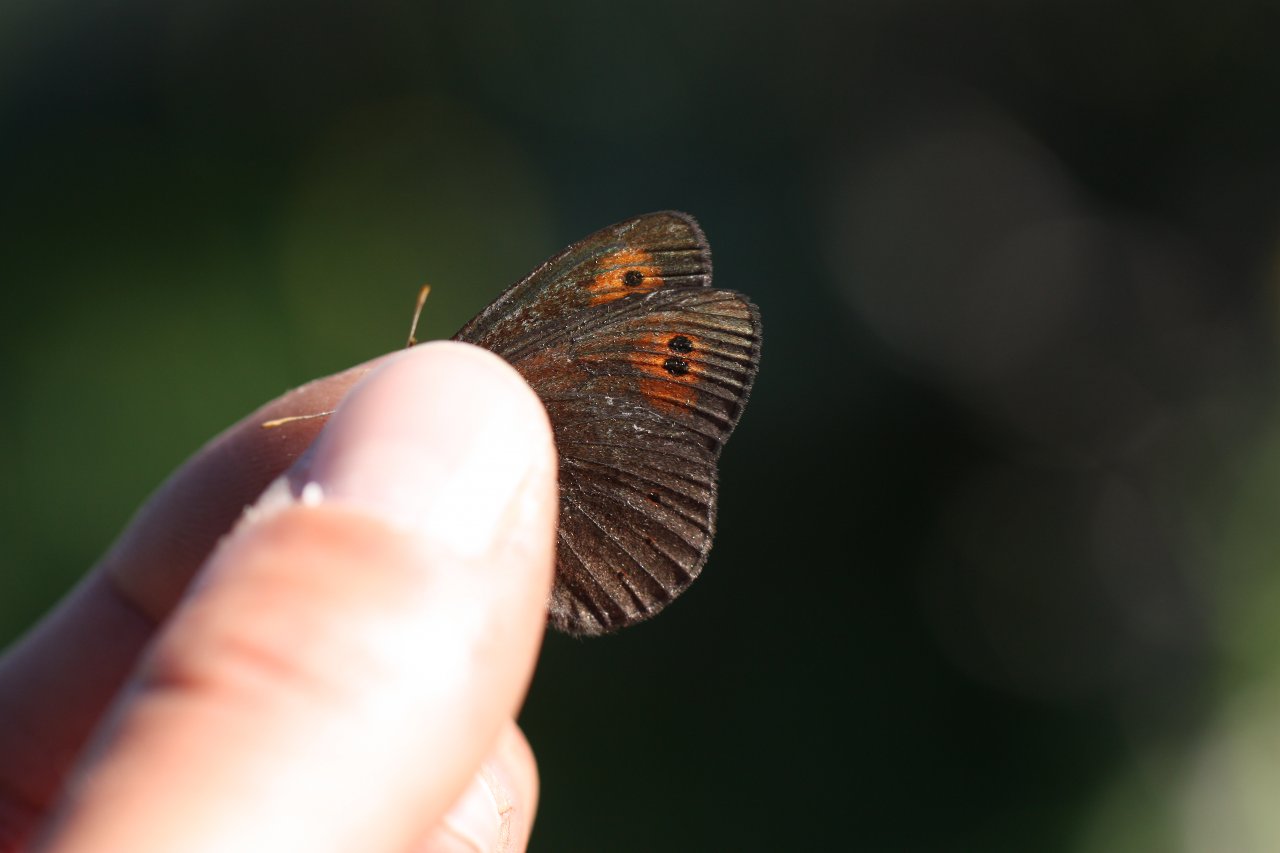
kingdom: Animalia
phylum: Arthropoda
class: Insecta
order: Lepidoptera
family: Nymphalidae
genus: Erebia
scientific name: Erebia epipsodea
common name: Common Alpine
